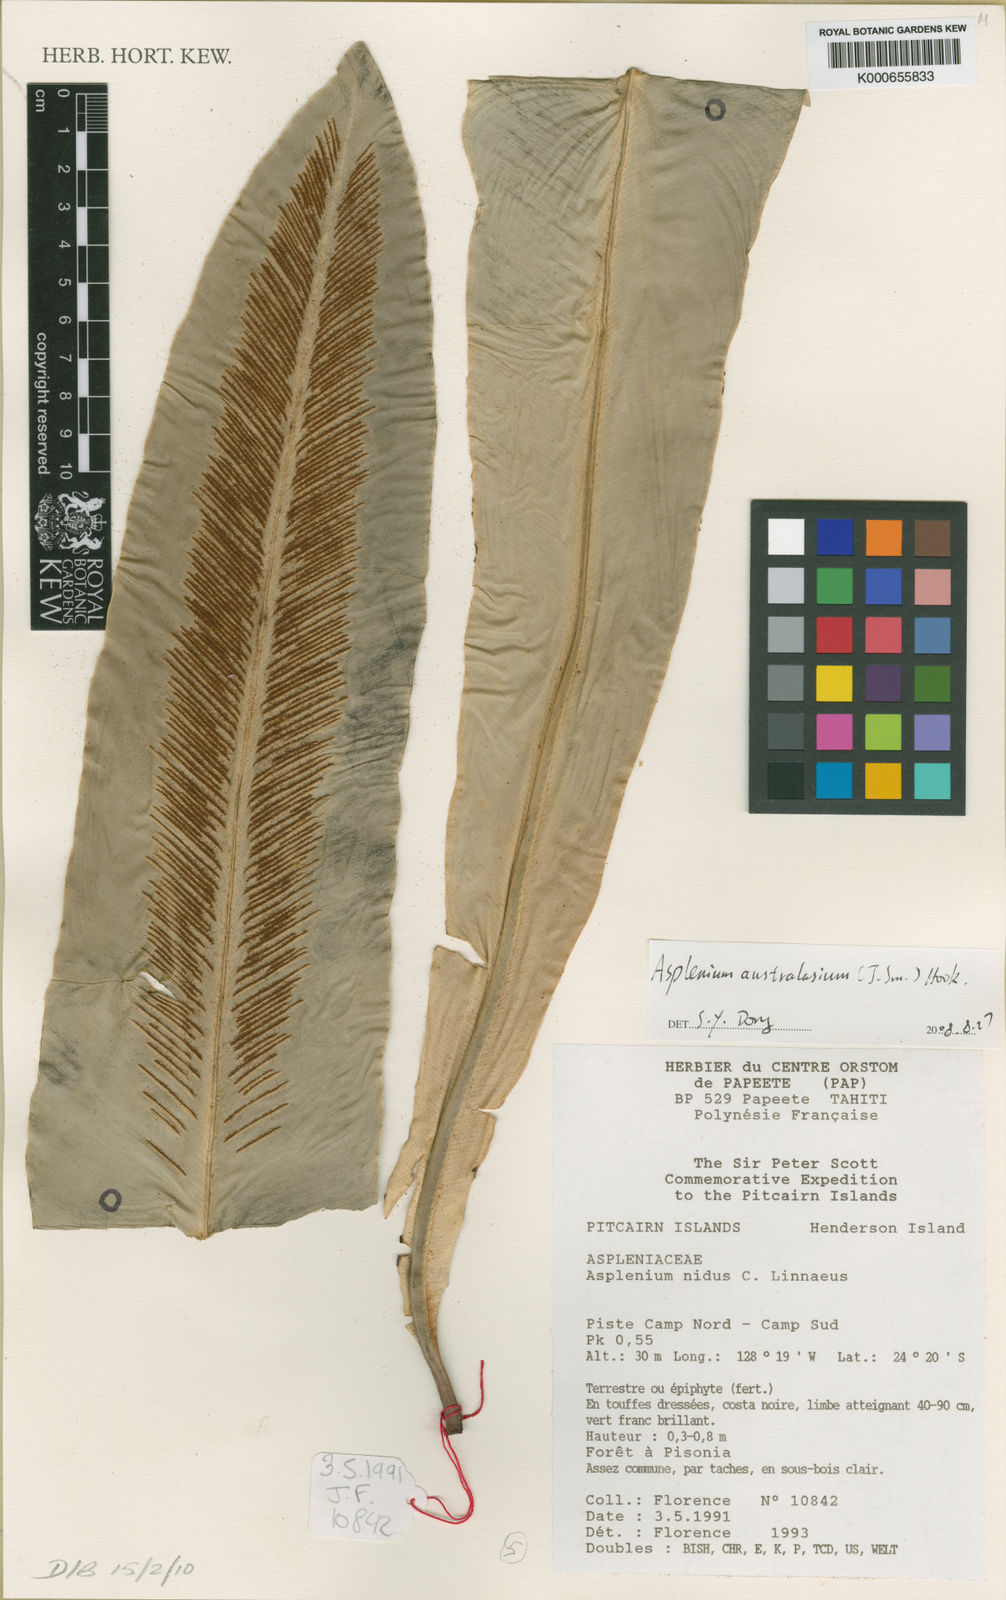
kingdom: Plantae
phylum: Tracheophyta
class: Polypodiopsida
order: Polypodiales
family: Aspleniaceae
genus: Asplenium
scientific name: Asplenium
